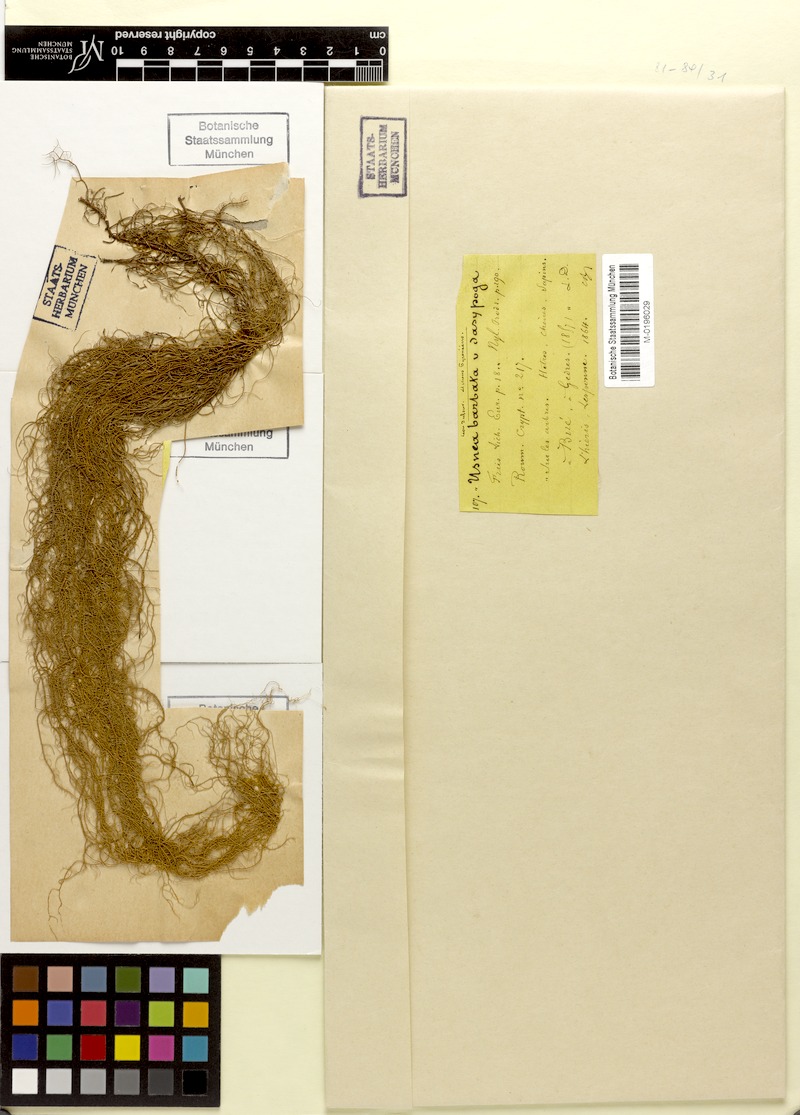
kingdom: Fungi
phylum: Ascomycota
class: Lecanoromycetes
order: Lecanorales
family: Parmeliaceae
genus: Usnea
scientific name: Usnea barbata
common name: Old man's beard lichen
